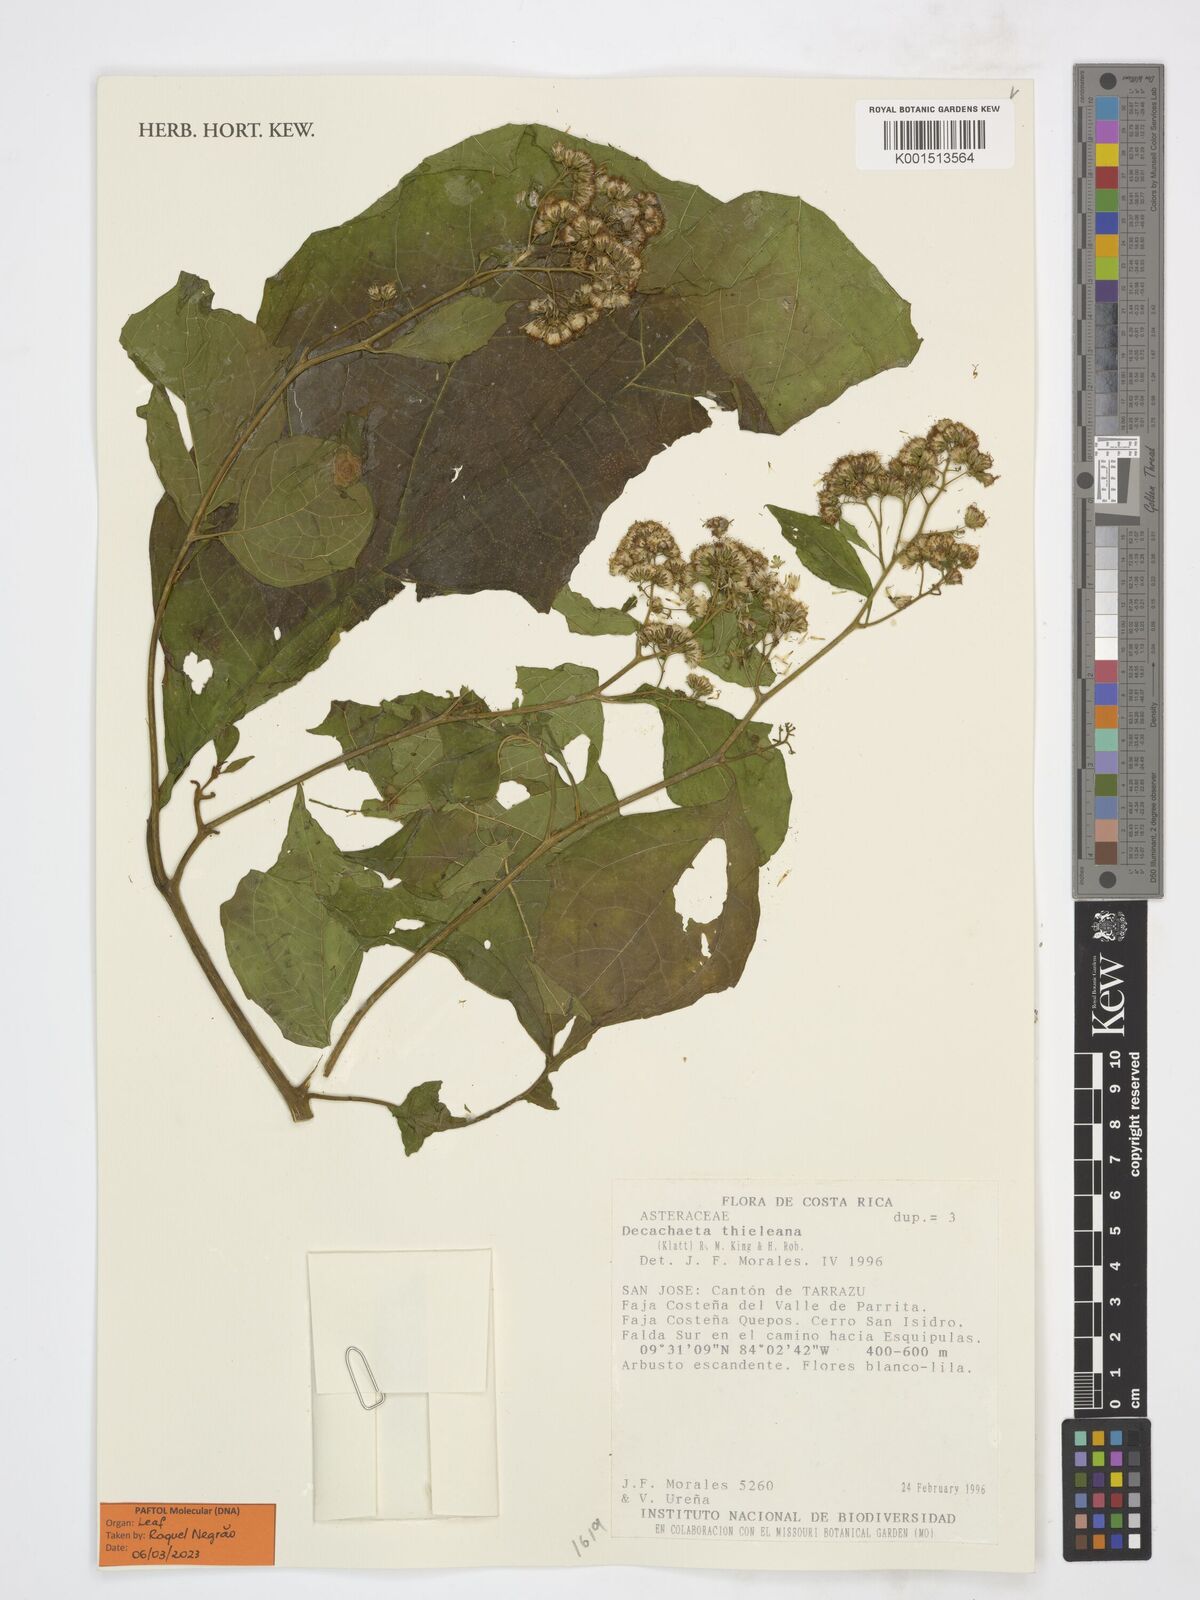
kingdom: Plantae
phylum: Tracheophyta
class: Magnoliopsida
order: Asterales
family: Asteraceae
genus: Decachaeta
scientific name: Decachaeta thieleana
